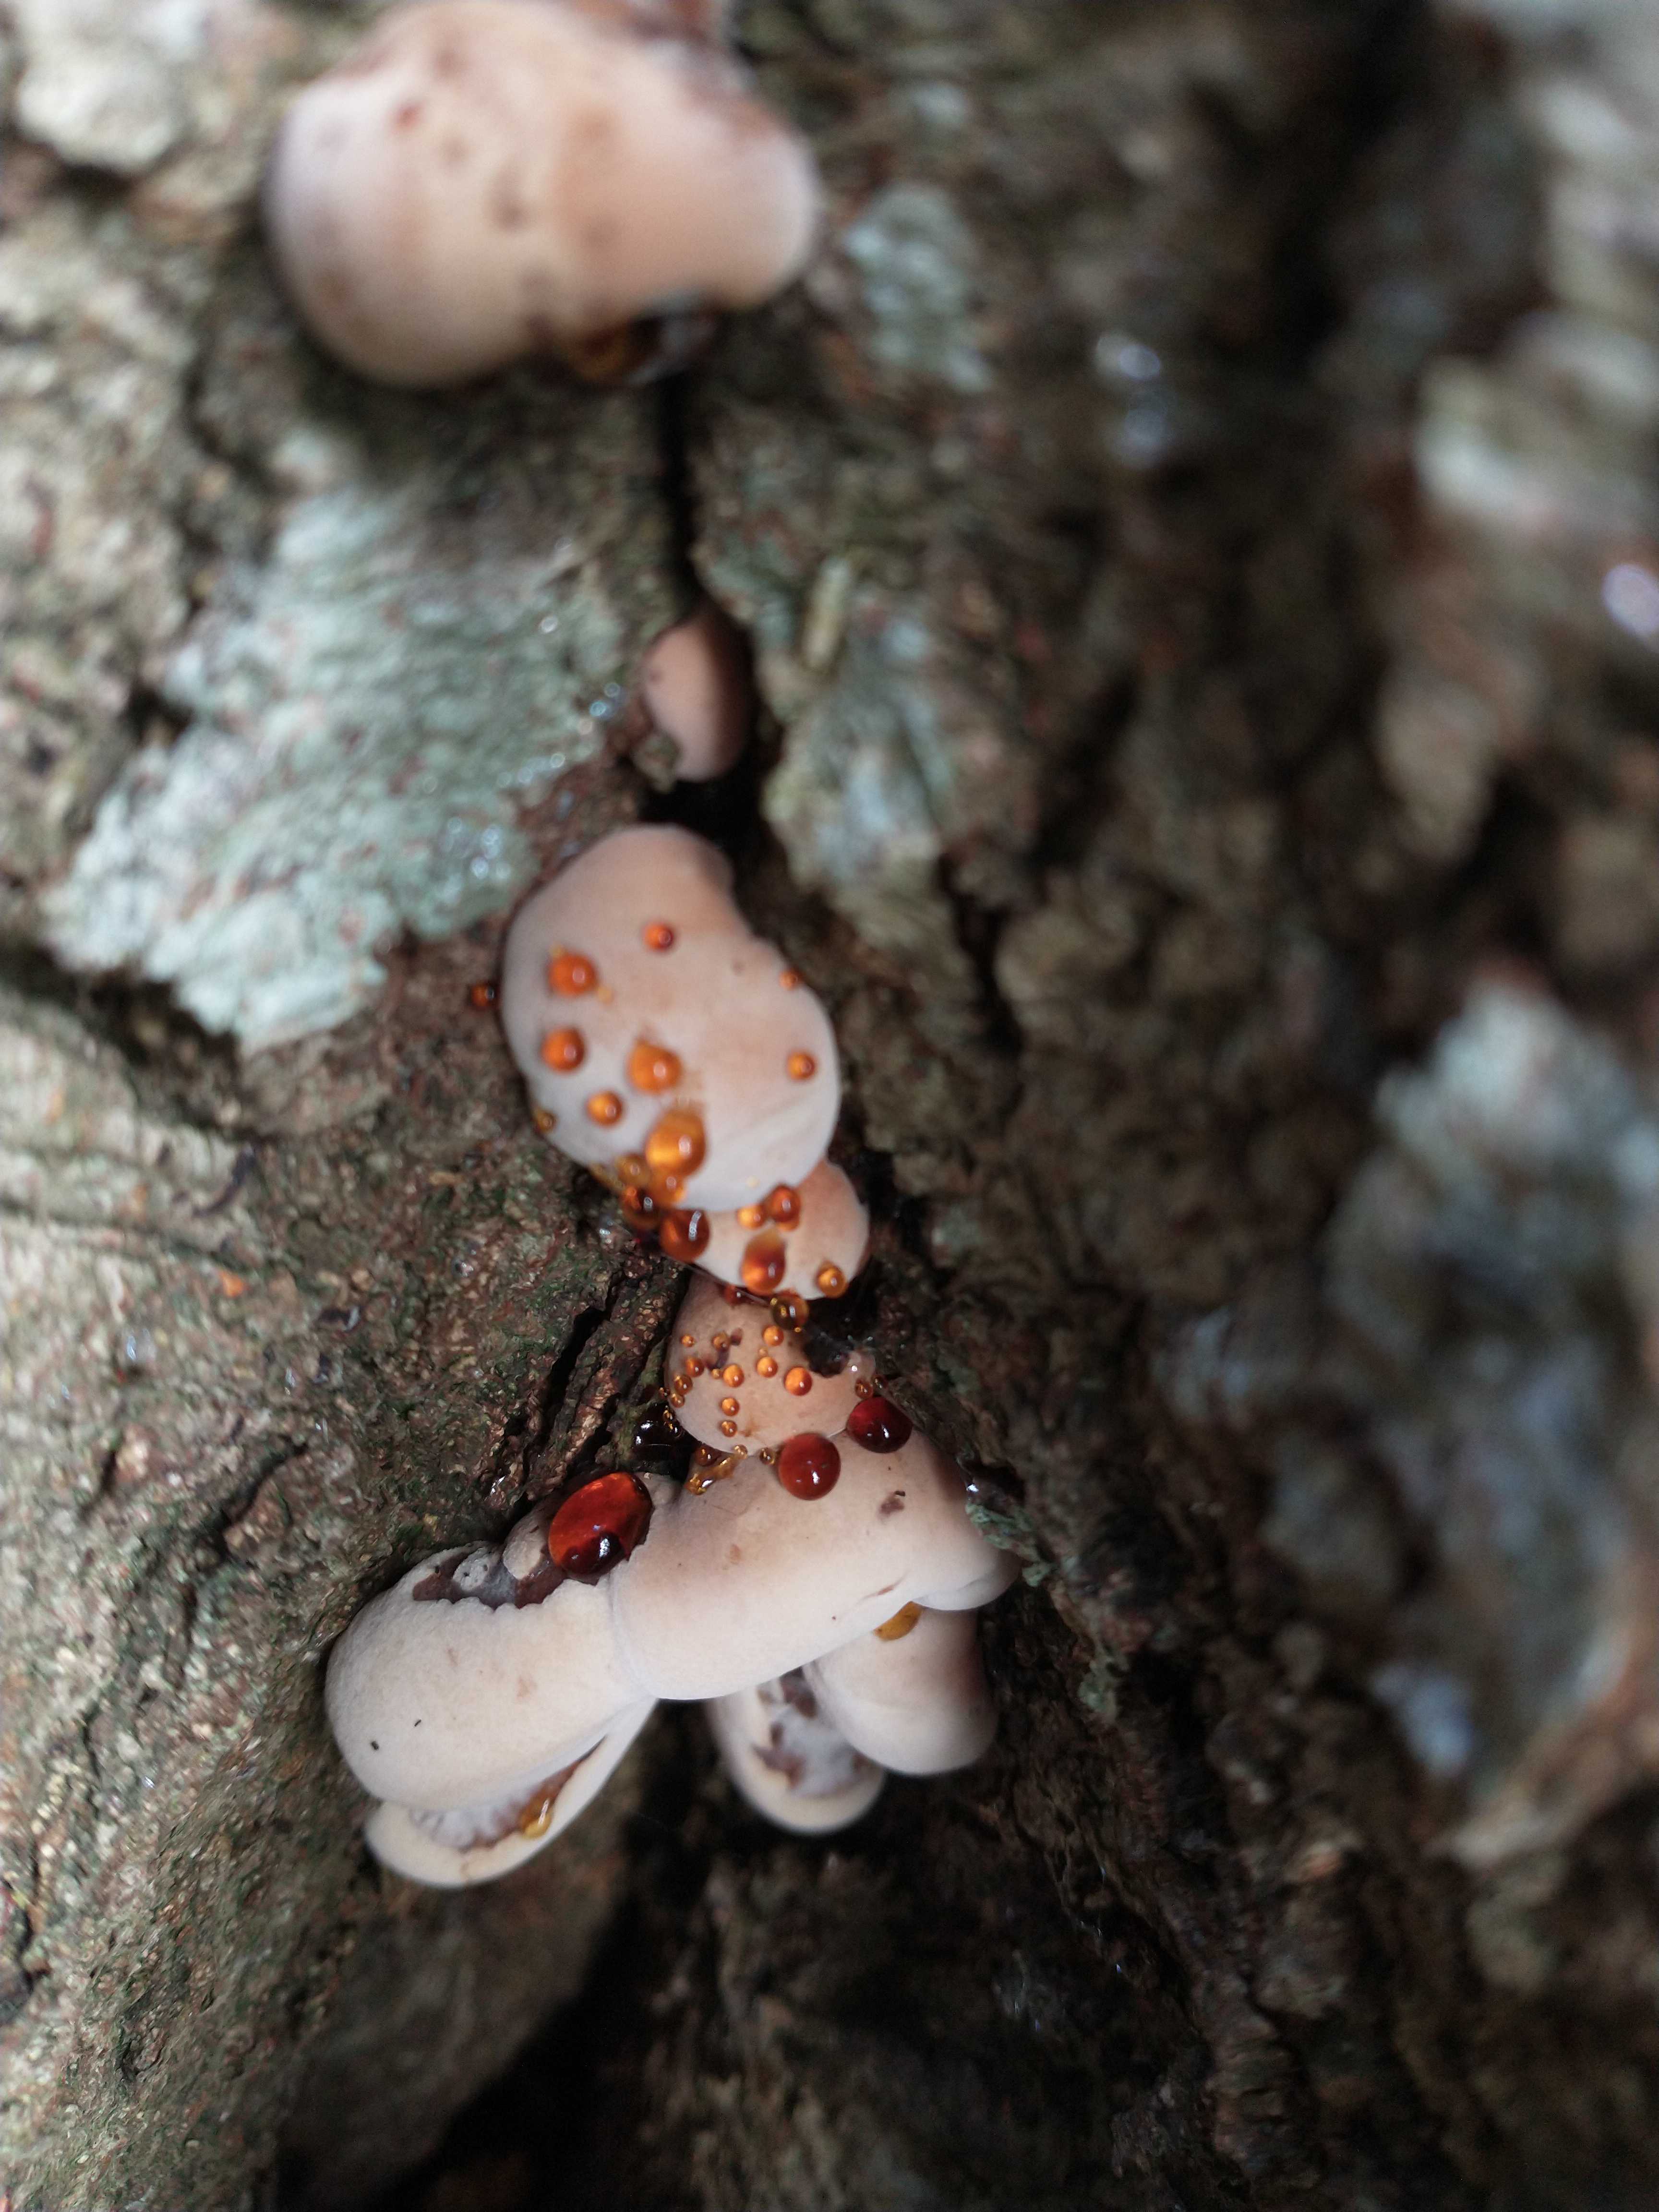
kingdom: Fungi
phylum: Basidiomycota
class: Agaricomycetes
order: Polyporales
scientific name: Polyporales
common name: poresvampordenen
